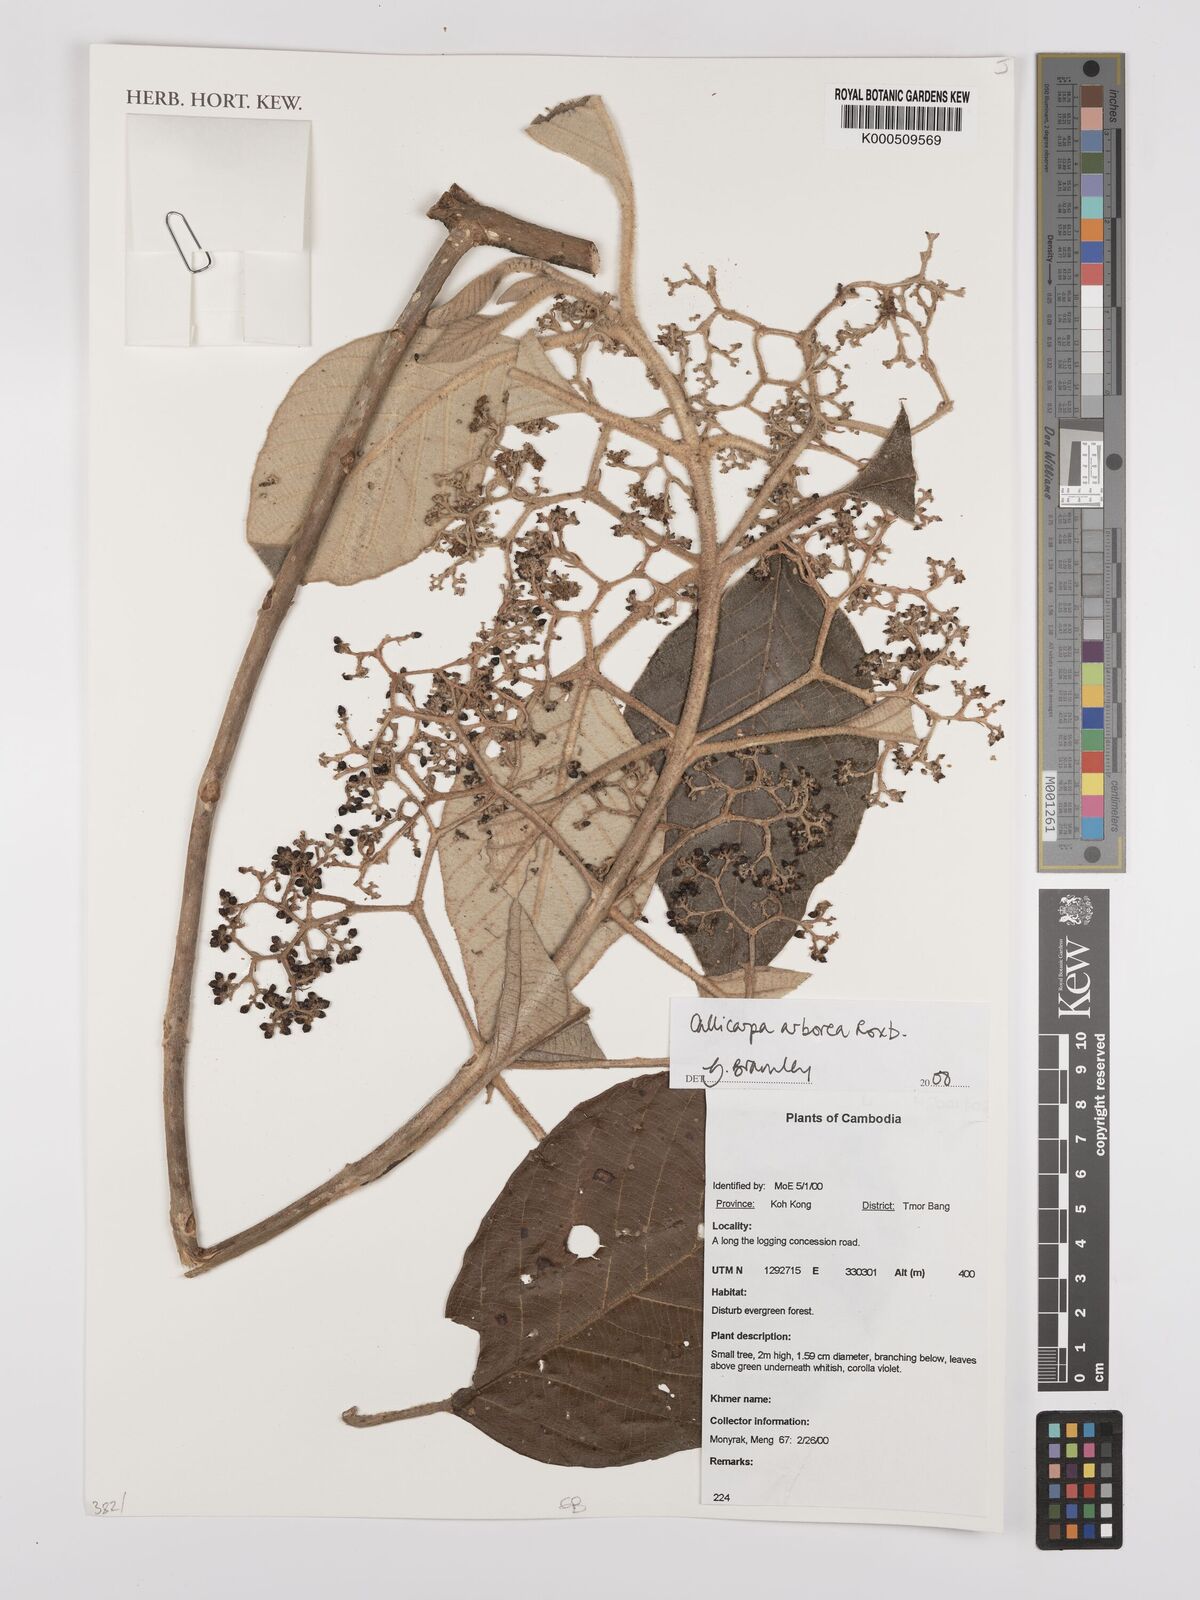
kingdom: Plantae
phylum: Tracheophyta
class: Magnoliopsida
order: Lamiales
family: Lamiaceae
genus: Callicarpa
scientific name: Callicarpa arborea
